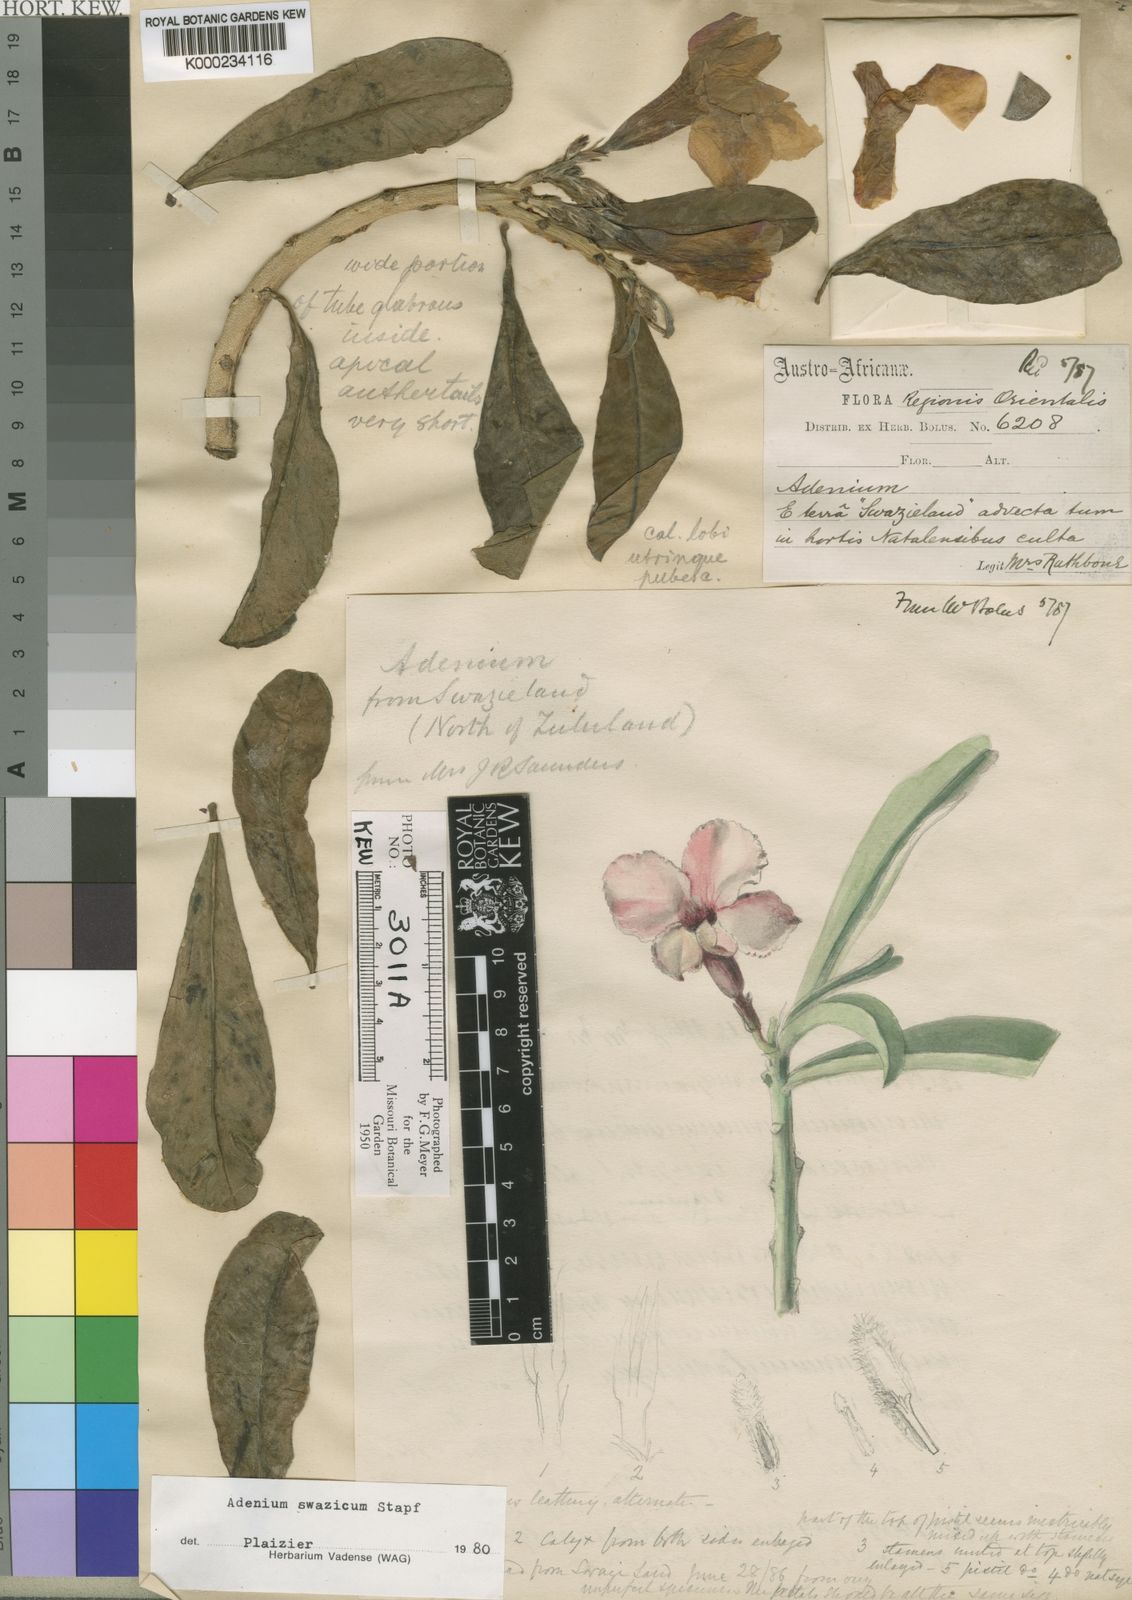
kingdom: Plantae
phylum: Tracheophyta
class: Magnoliopsida
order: Gentianales
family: Apocynaceae
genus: Adenium
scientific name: Adenium obesum
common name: Desert-rose
